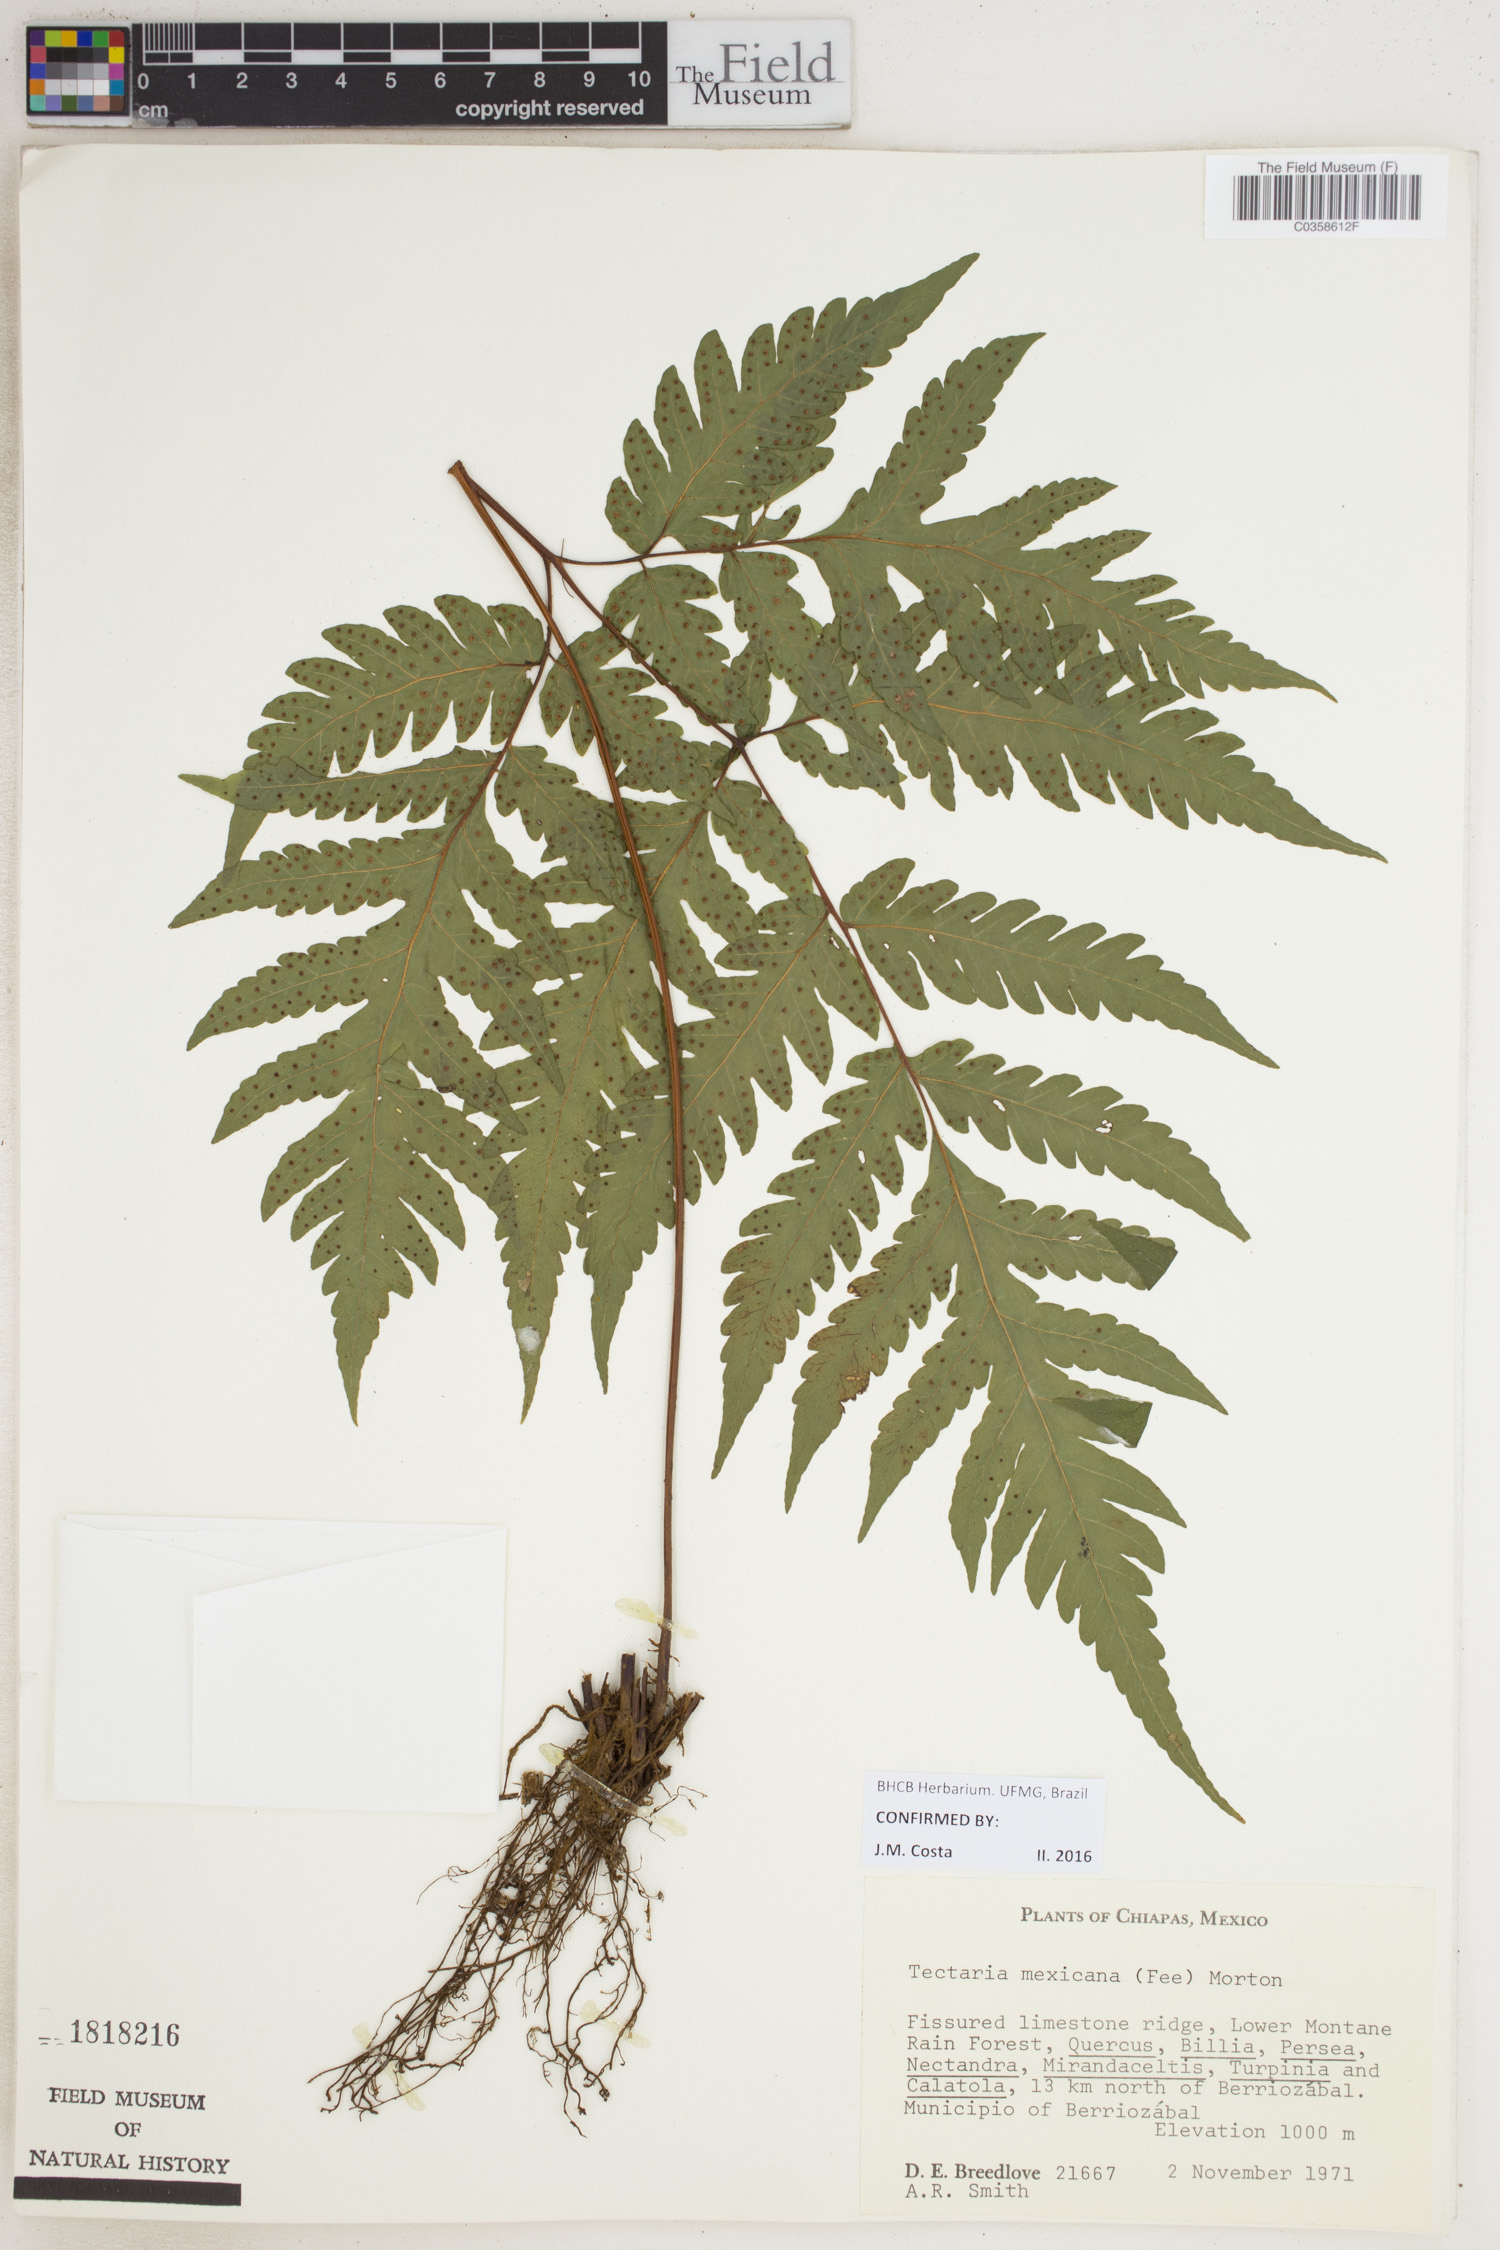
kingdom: Plantae
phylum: Tracheophyta
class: Polypodiopsida
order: Polypodiales
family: Tectariaceae
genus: Tectaria
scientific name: Tectaria mexicana
